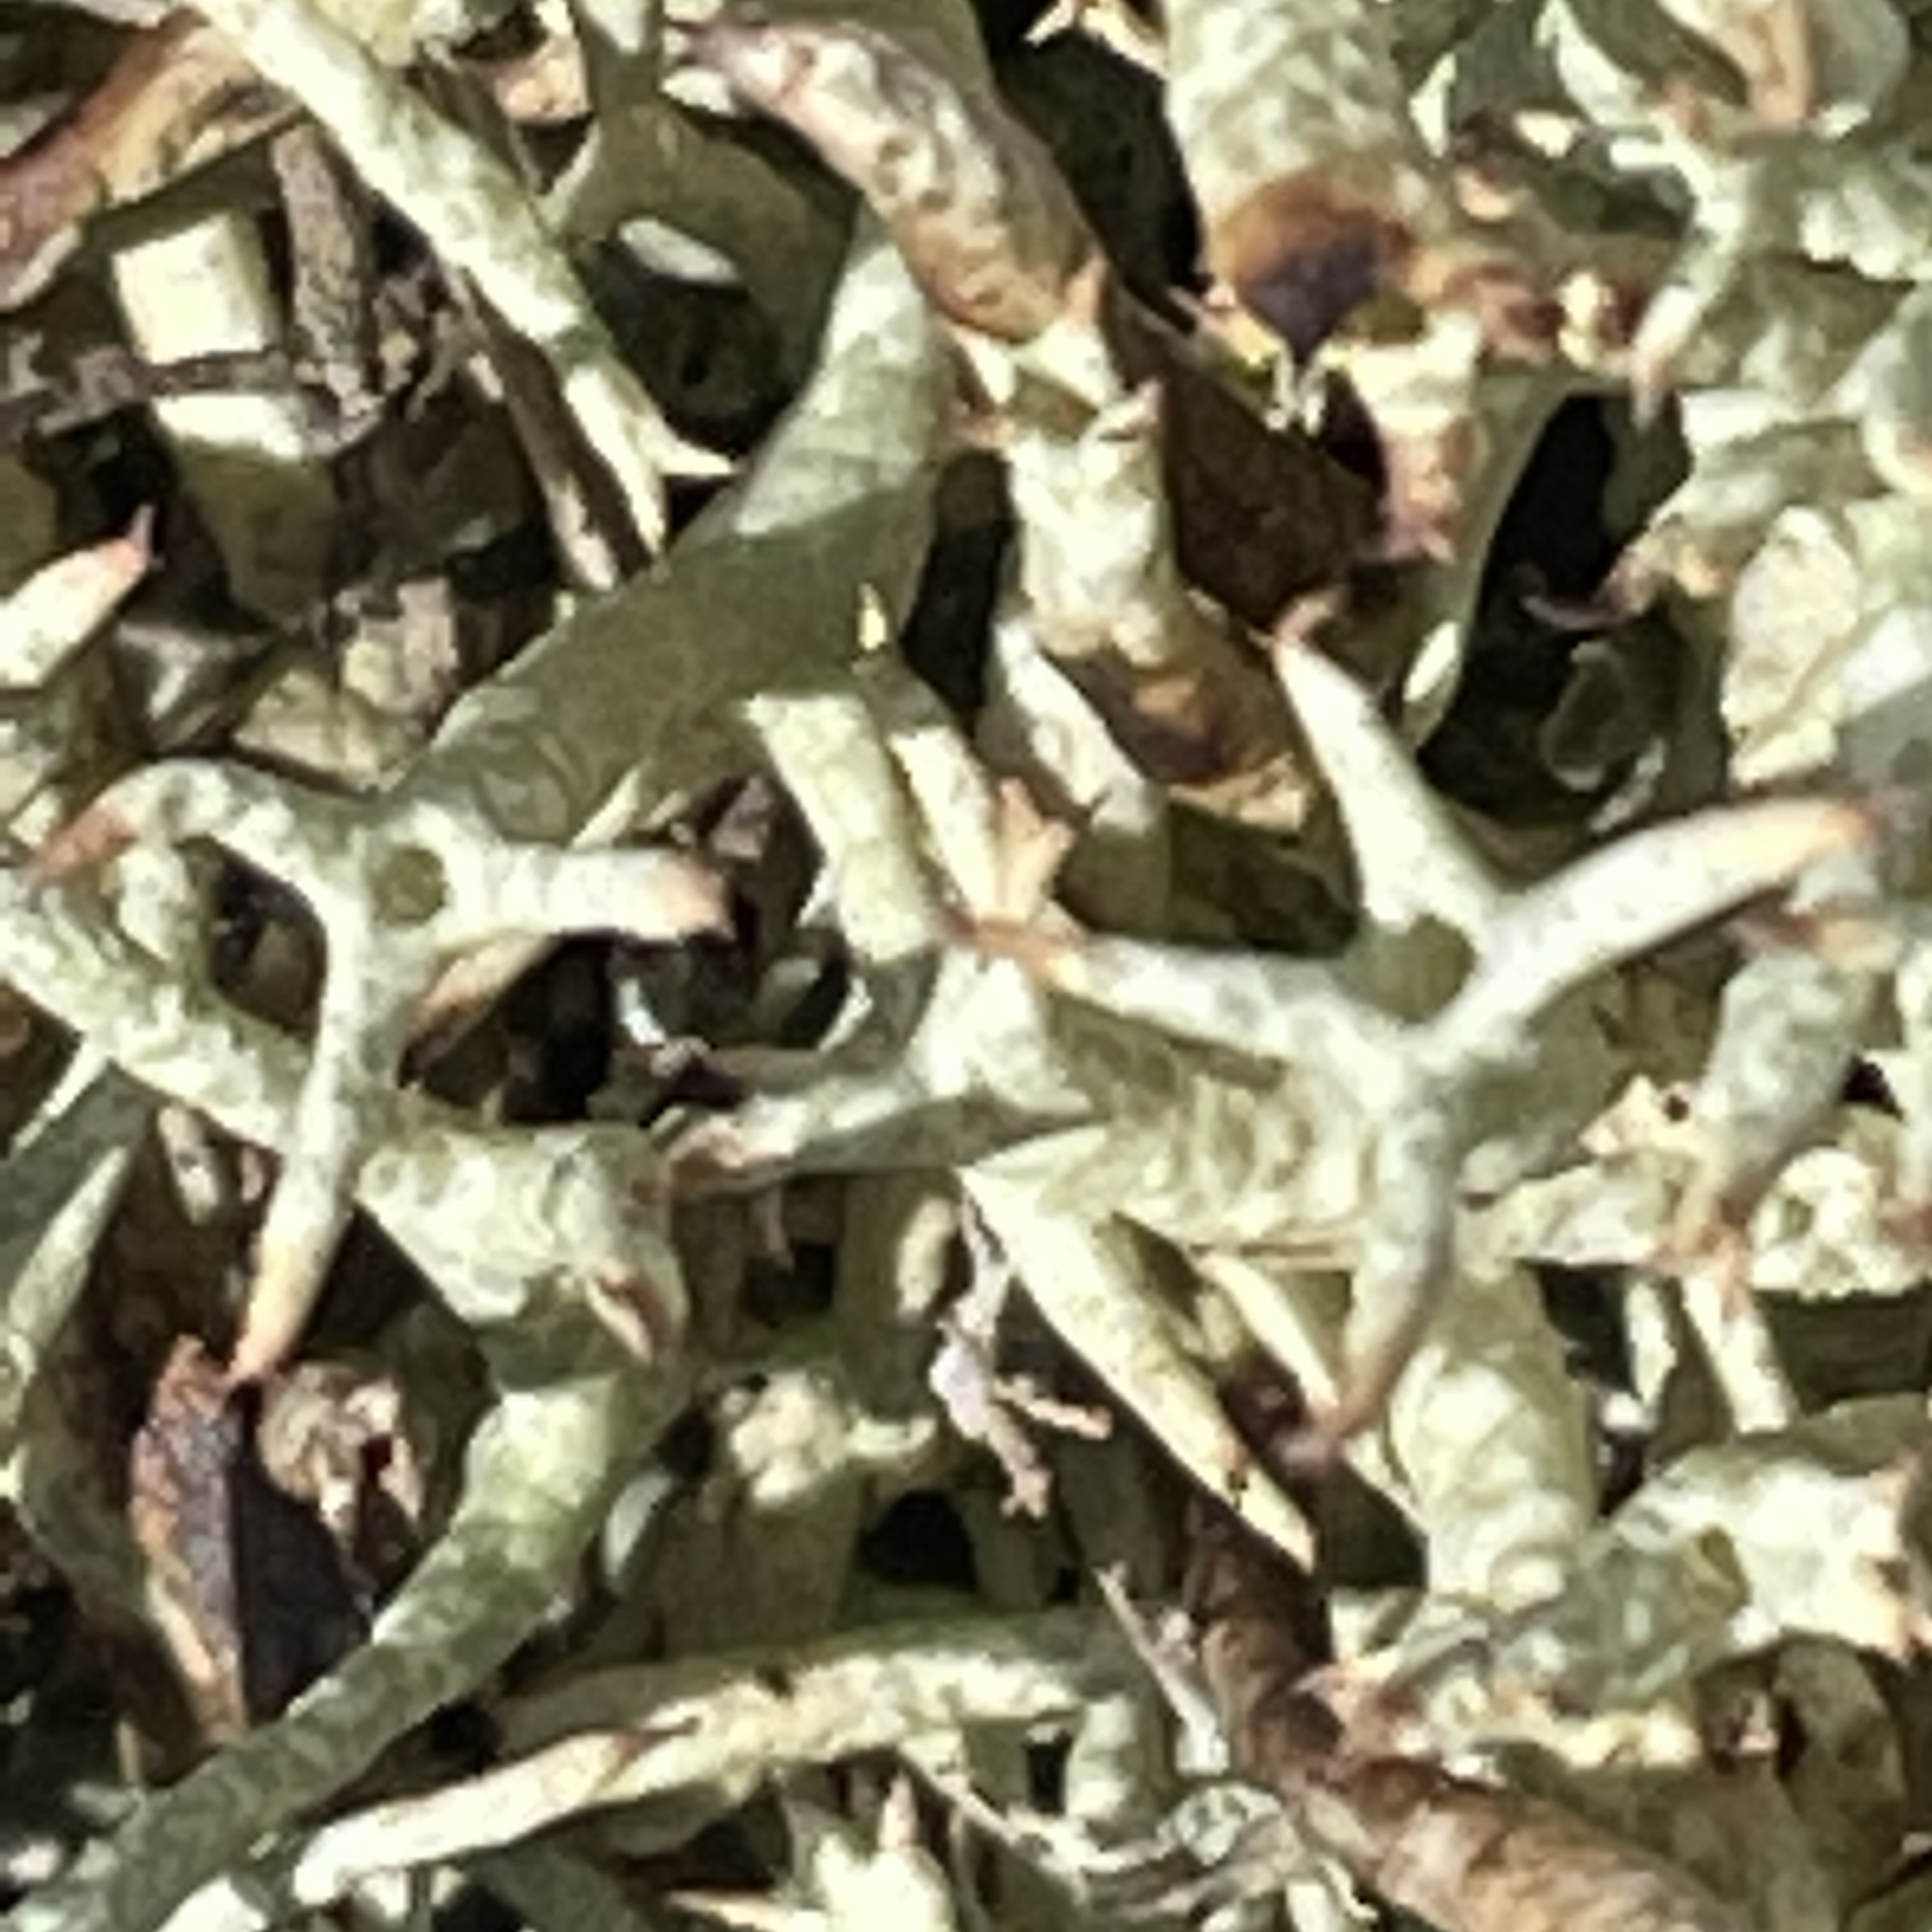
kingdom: Fungi
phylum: Ascomycota
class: Lecanoromycetes
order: Lecanorales
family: Cladoniaceae
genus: Cladonia
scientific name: Cladonia uncialis
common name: pigget bægerlav
